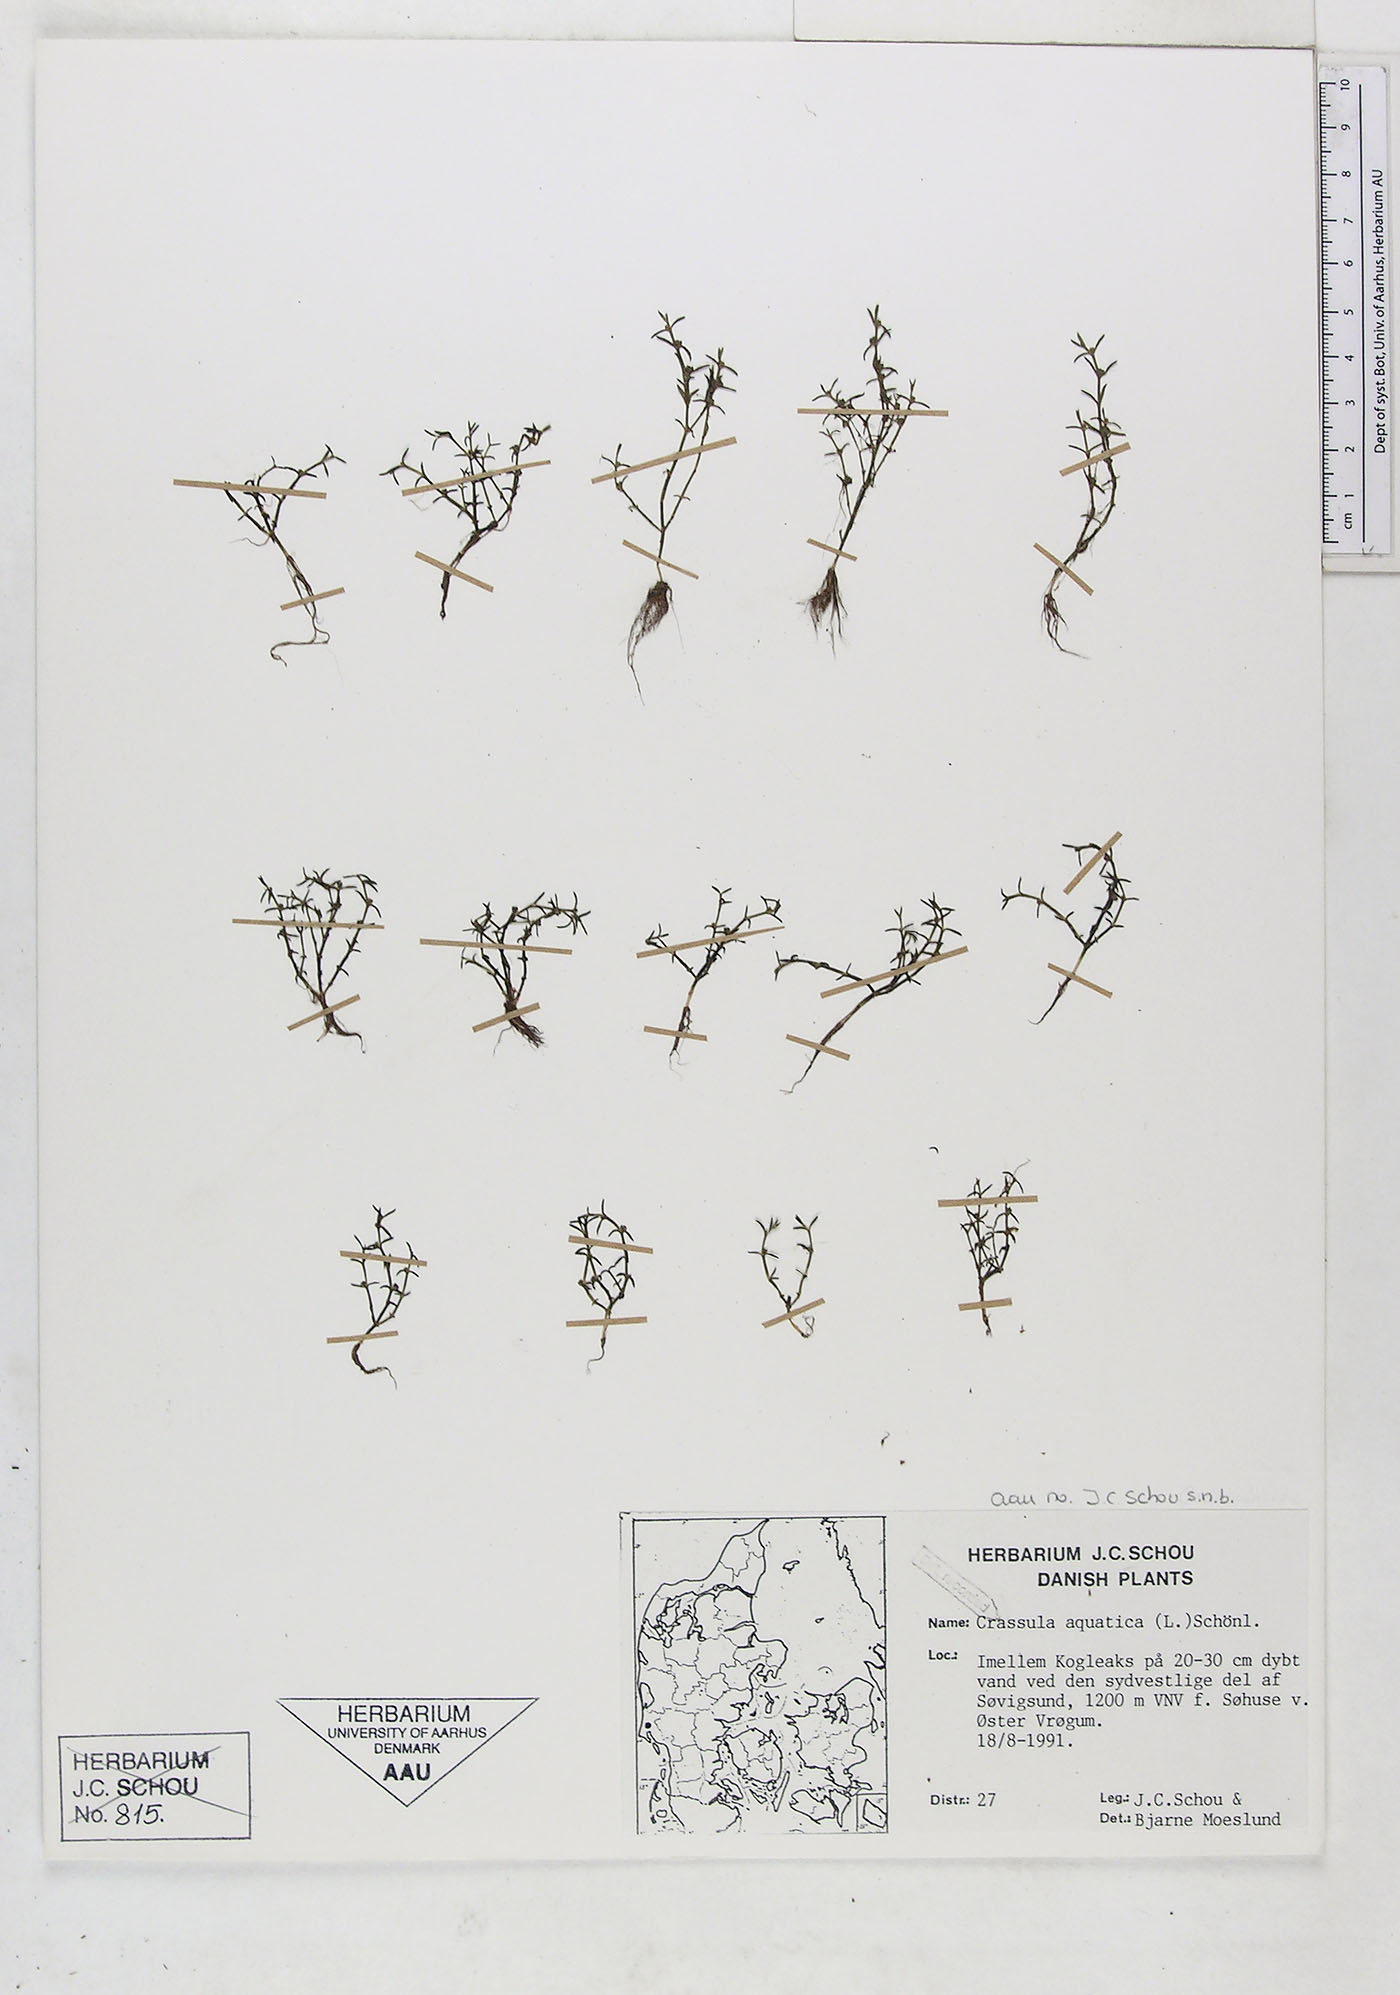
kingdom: Plantae
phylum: Tracheophyta
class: Magnoliopsida
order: Saxifragales
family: Crassulaceae
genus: Crassula
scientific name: Crassula aquatica
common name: Pigmyweed
